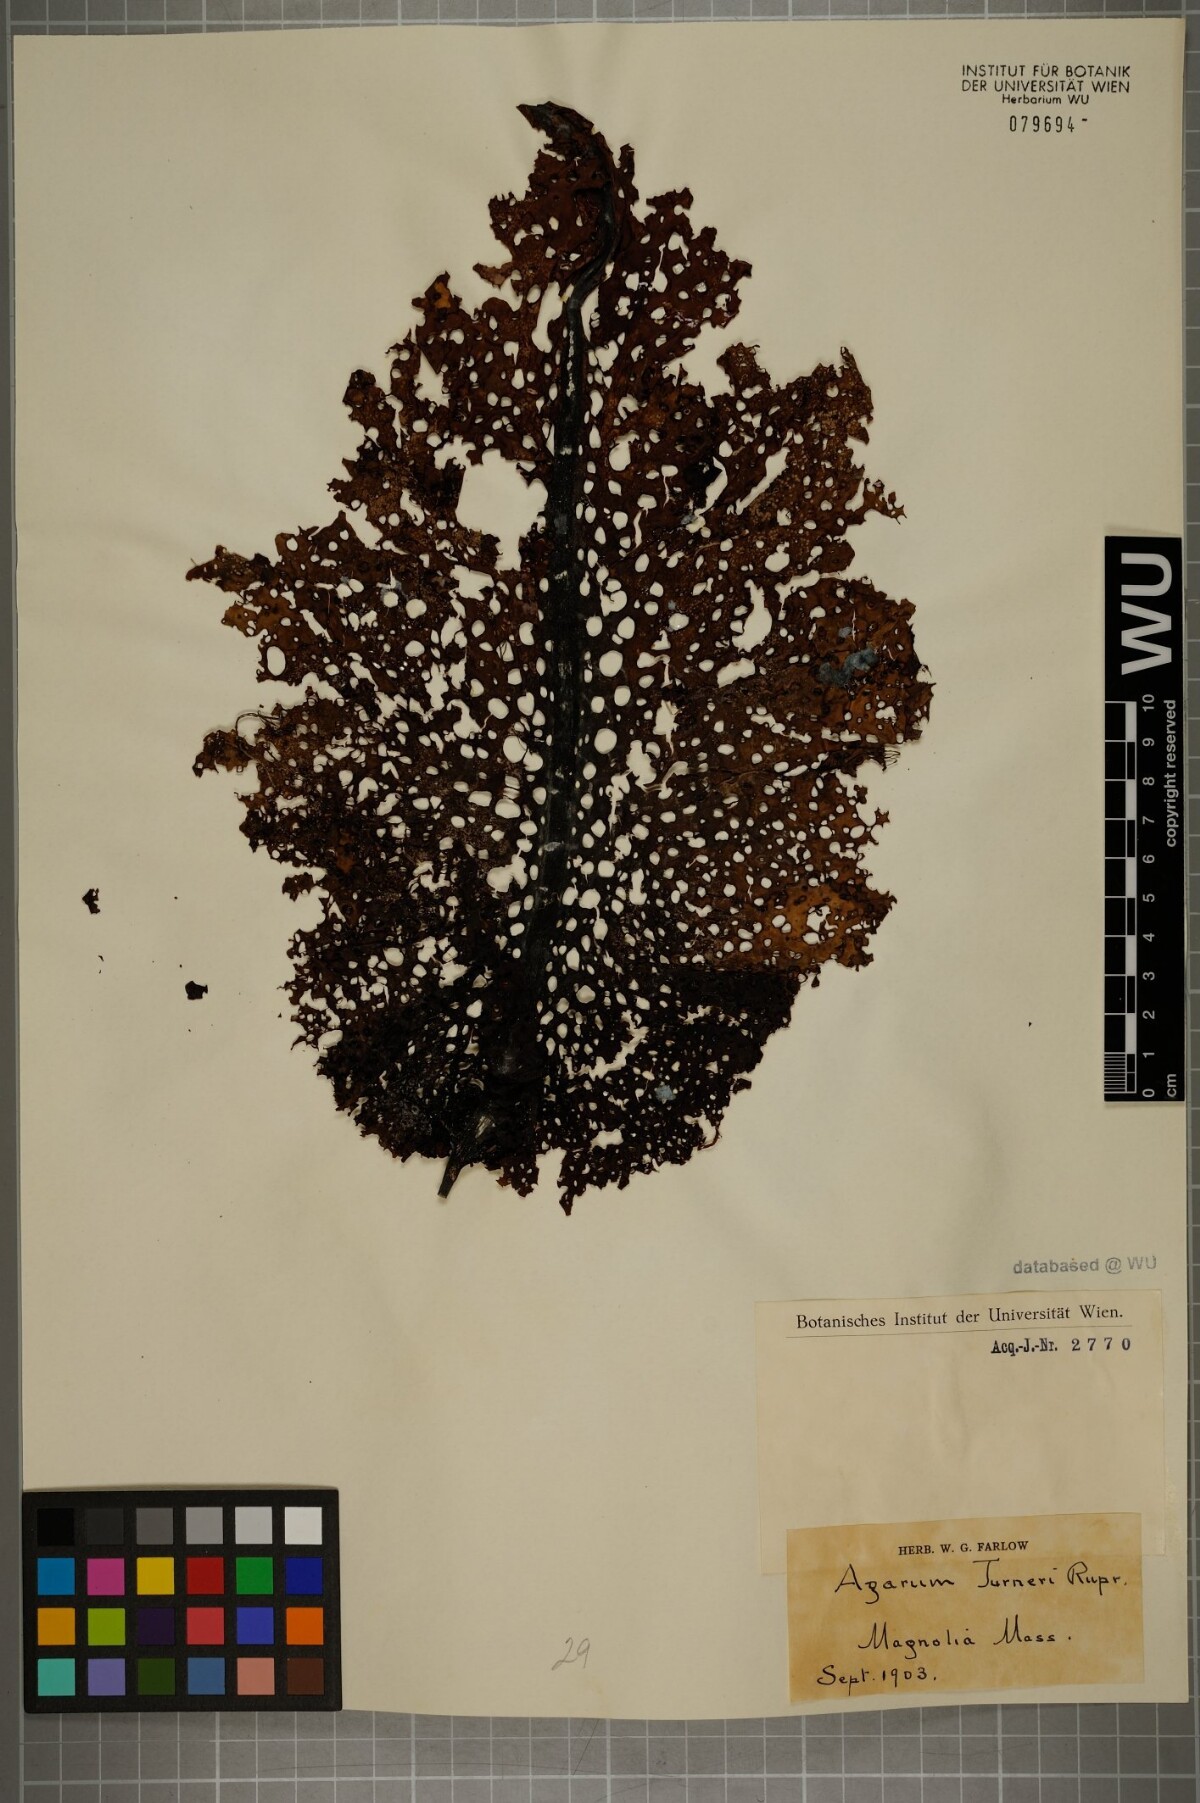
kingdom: Chromista
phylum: Ochrophyta
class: Phaeophyceae
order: Laminariales
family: Costariaceae
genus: Agarum
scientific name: Agarum turneri
